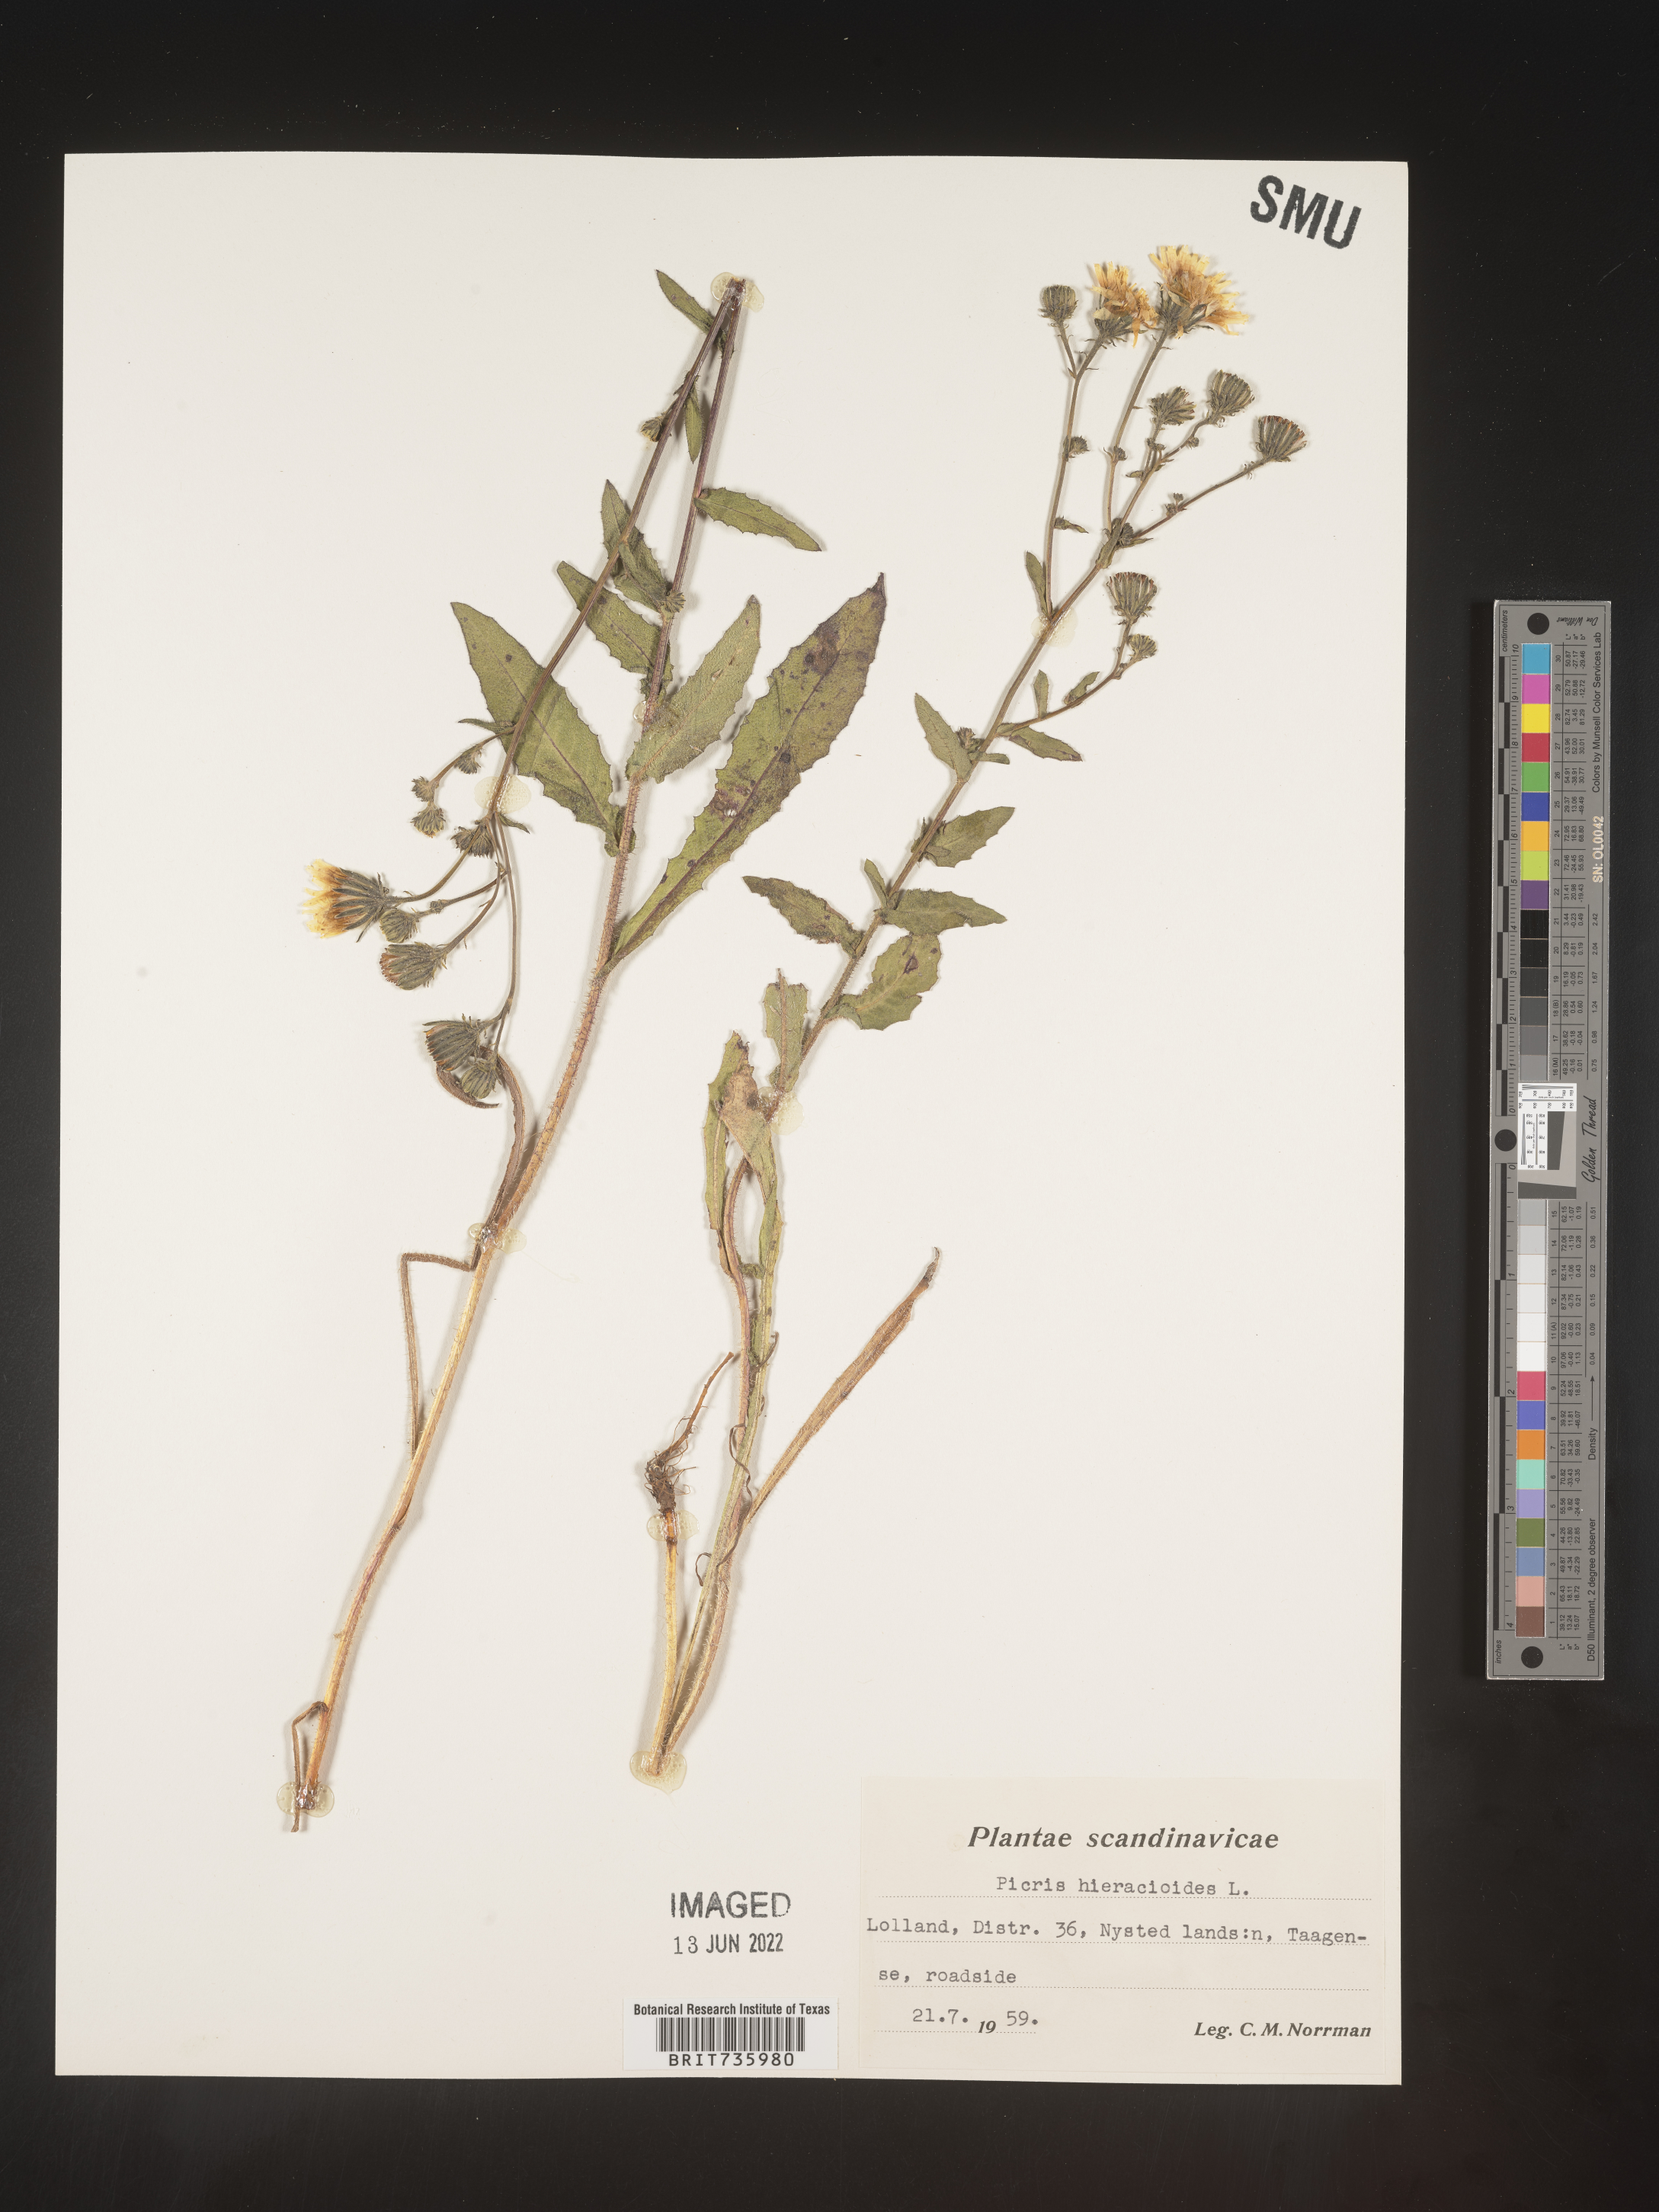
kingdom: Plantae
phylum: Tracheophyta
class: Magnoliopsida
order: Asterales
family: Asteraceae
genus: Picris
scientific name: Picris
